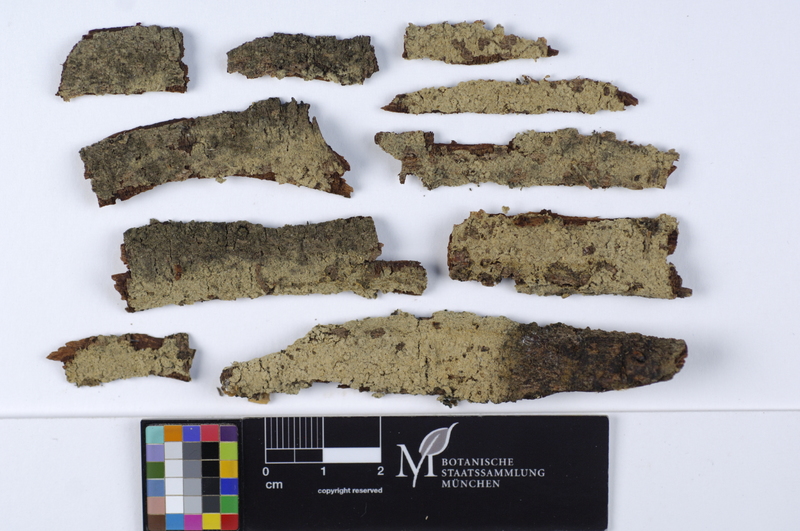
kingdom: Fungi
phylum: Basidiomycota
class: Agaricomycetes
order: Cantharellales
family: Botryobasidiaceae
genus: Botryobasidium
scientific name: Botryobasidium danicum
